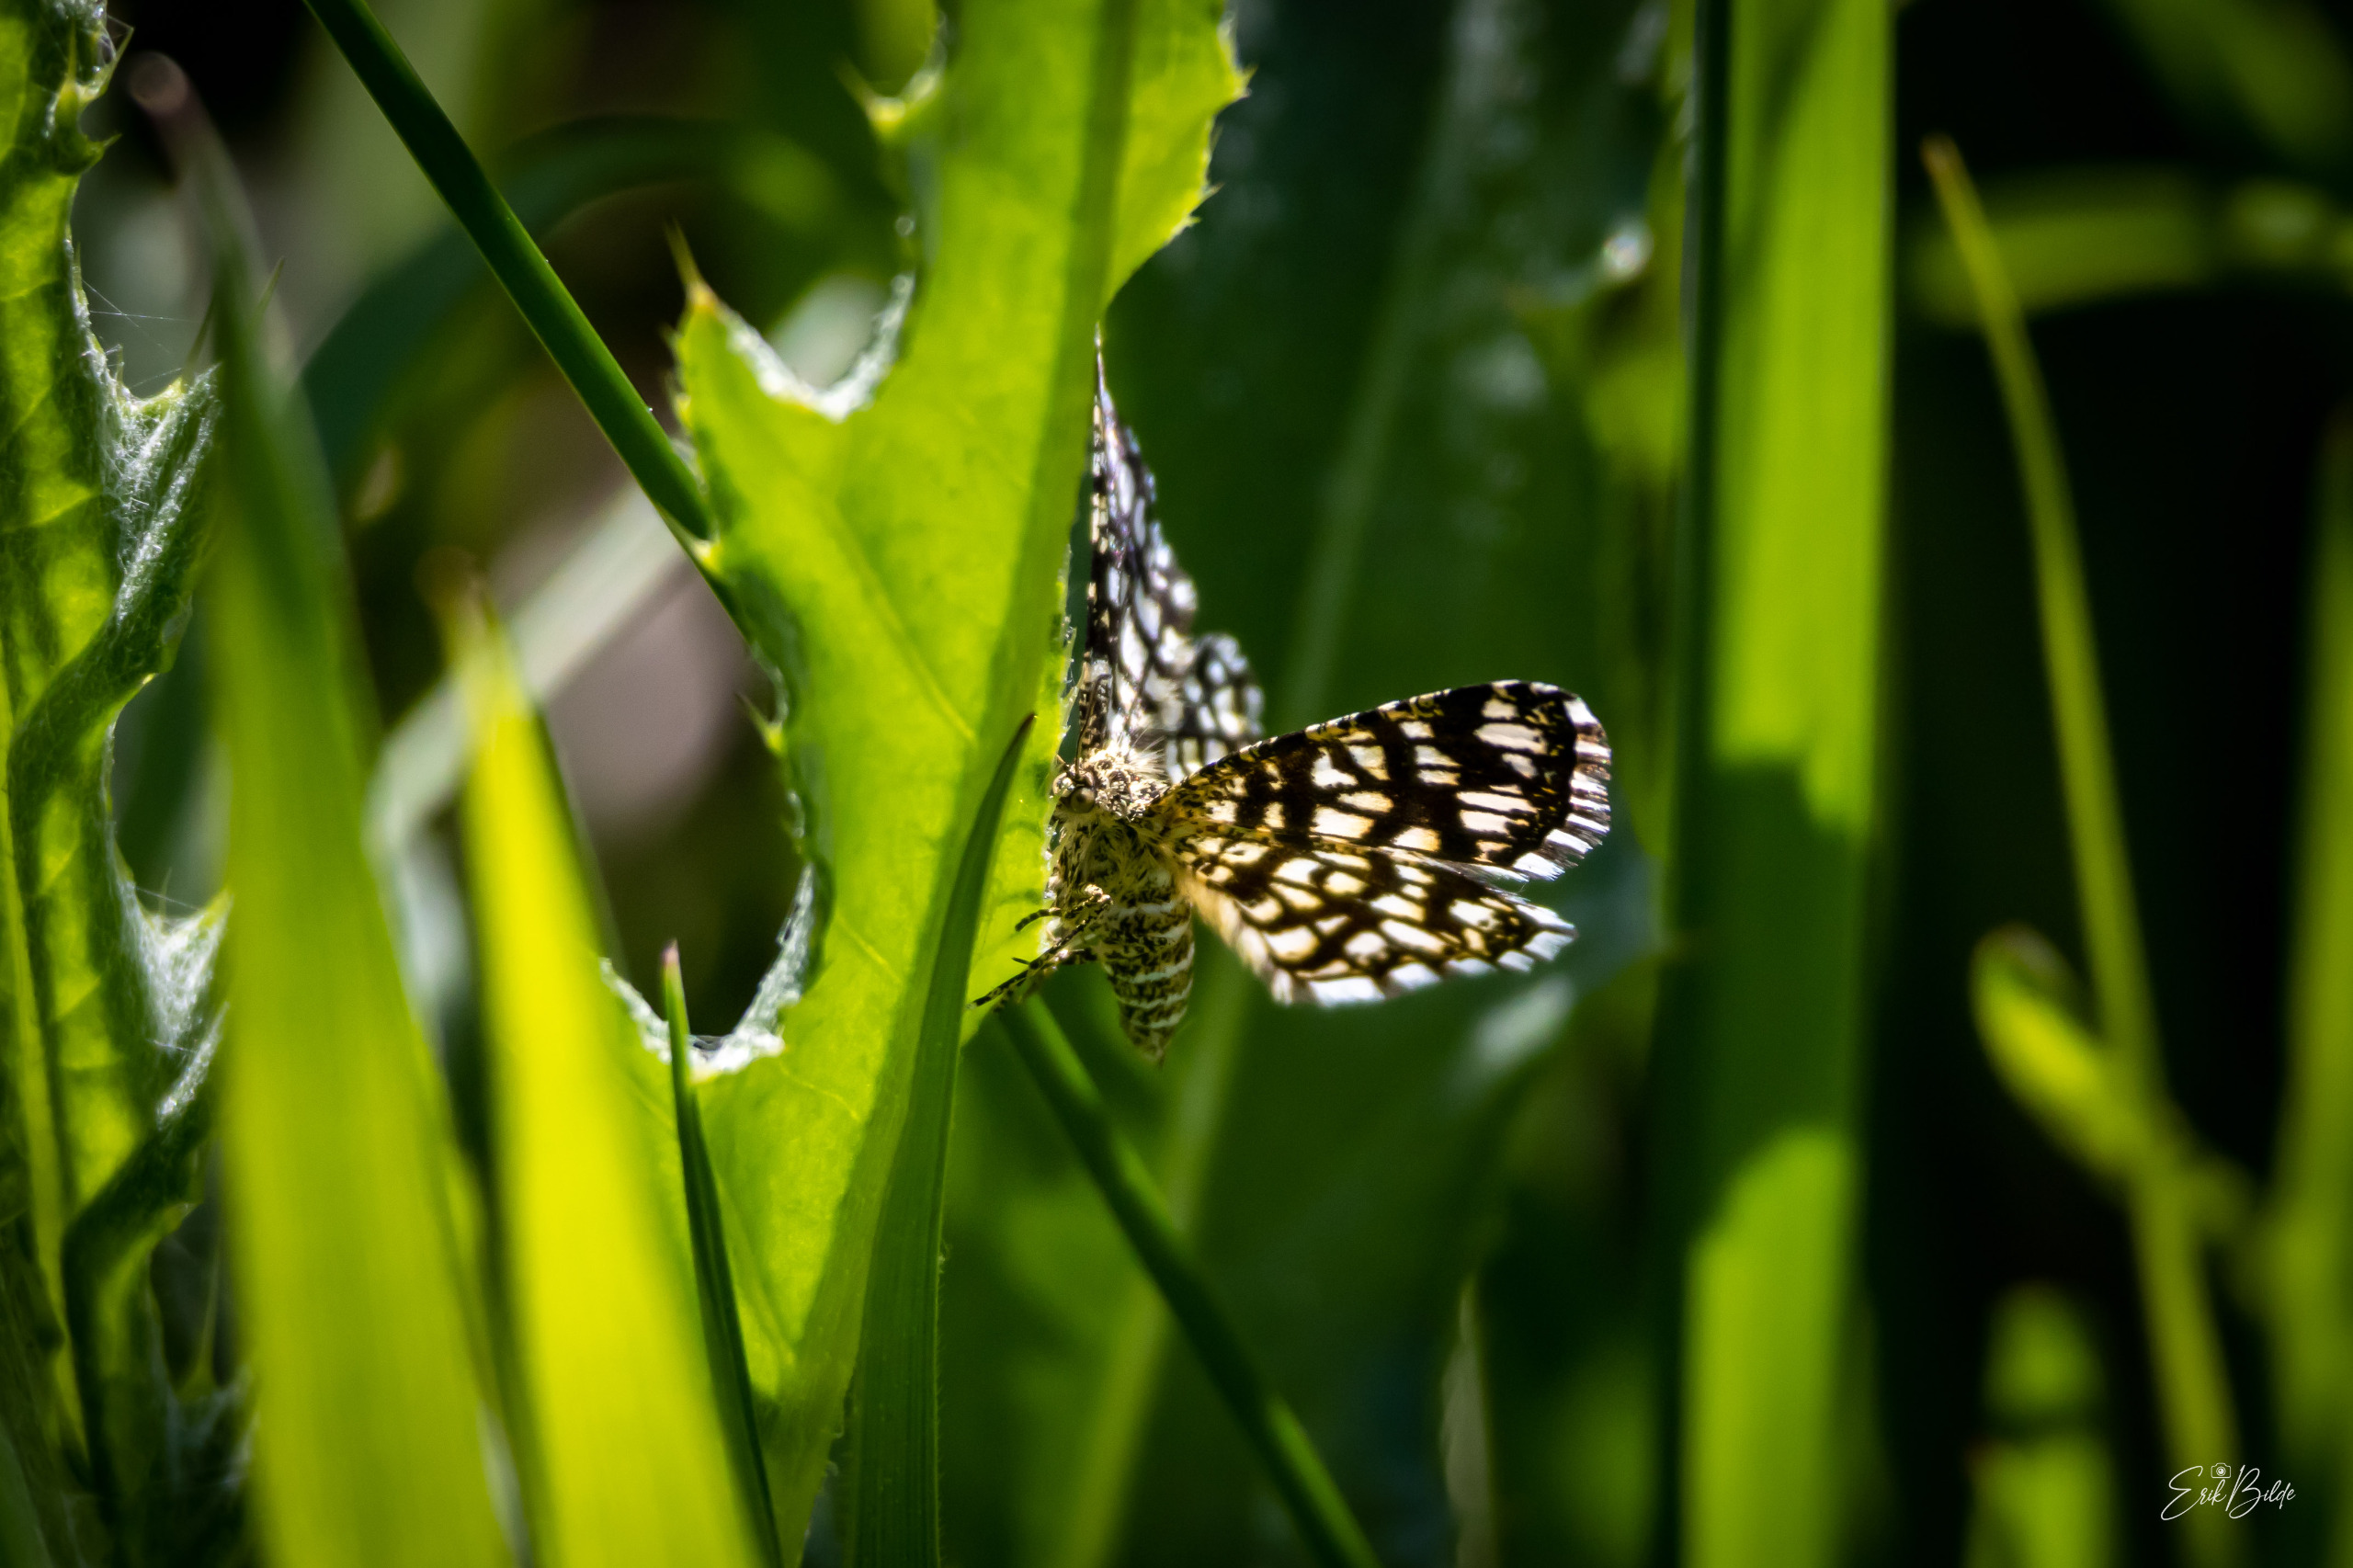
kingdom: Animalia
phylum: Arthropoda
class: Insecta
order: Lepidoptera
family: Geometridae
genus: Chiasmia
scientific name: Chiasmia clathrata
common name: Kløvermåler
